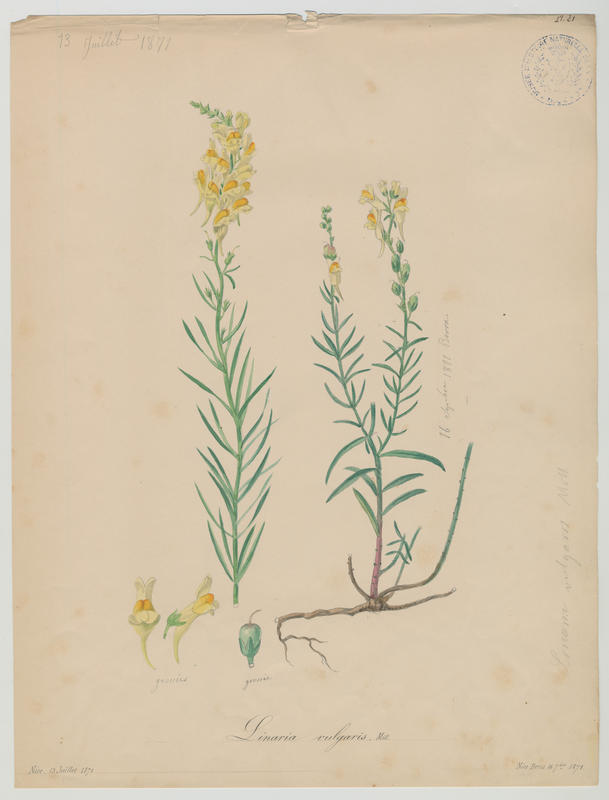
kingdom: Plantae
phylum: Tracheophyta
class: Magnoliopsida
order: Lamiales
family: Plantaginaceae
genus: Linaria
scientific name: Linaria vulgaris
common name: Butter and eggs
